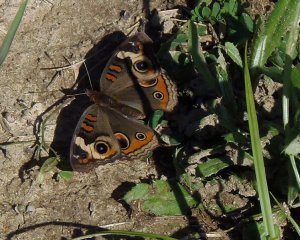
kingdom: Animalia
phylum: Arthropoda
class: Insecta
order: Lepidoptera
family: Nymphalidae
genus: Junonia
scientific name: Junonia coenia
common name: Common Buckeye
